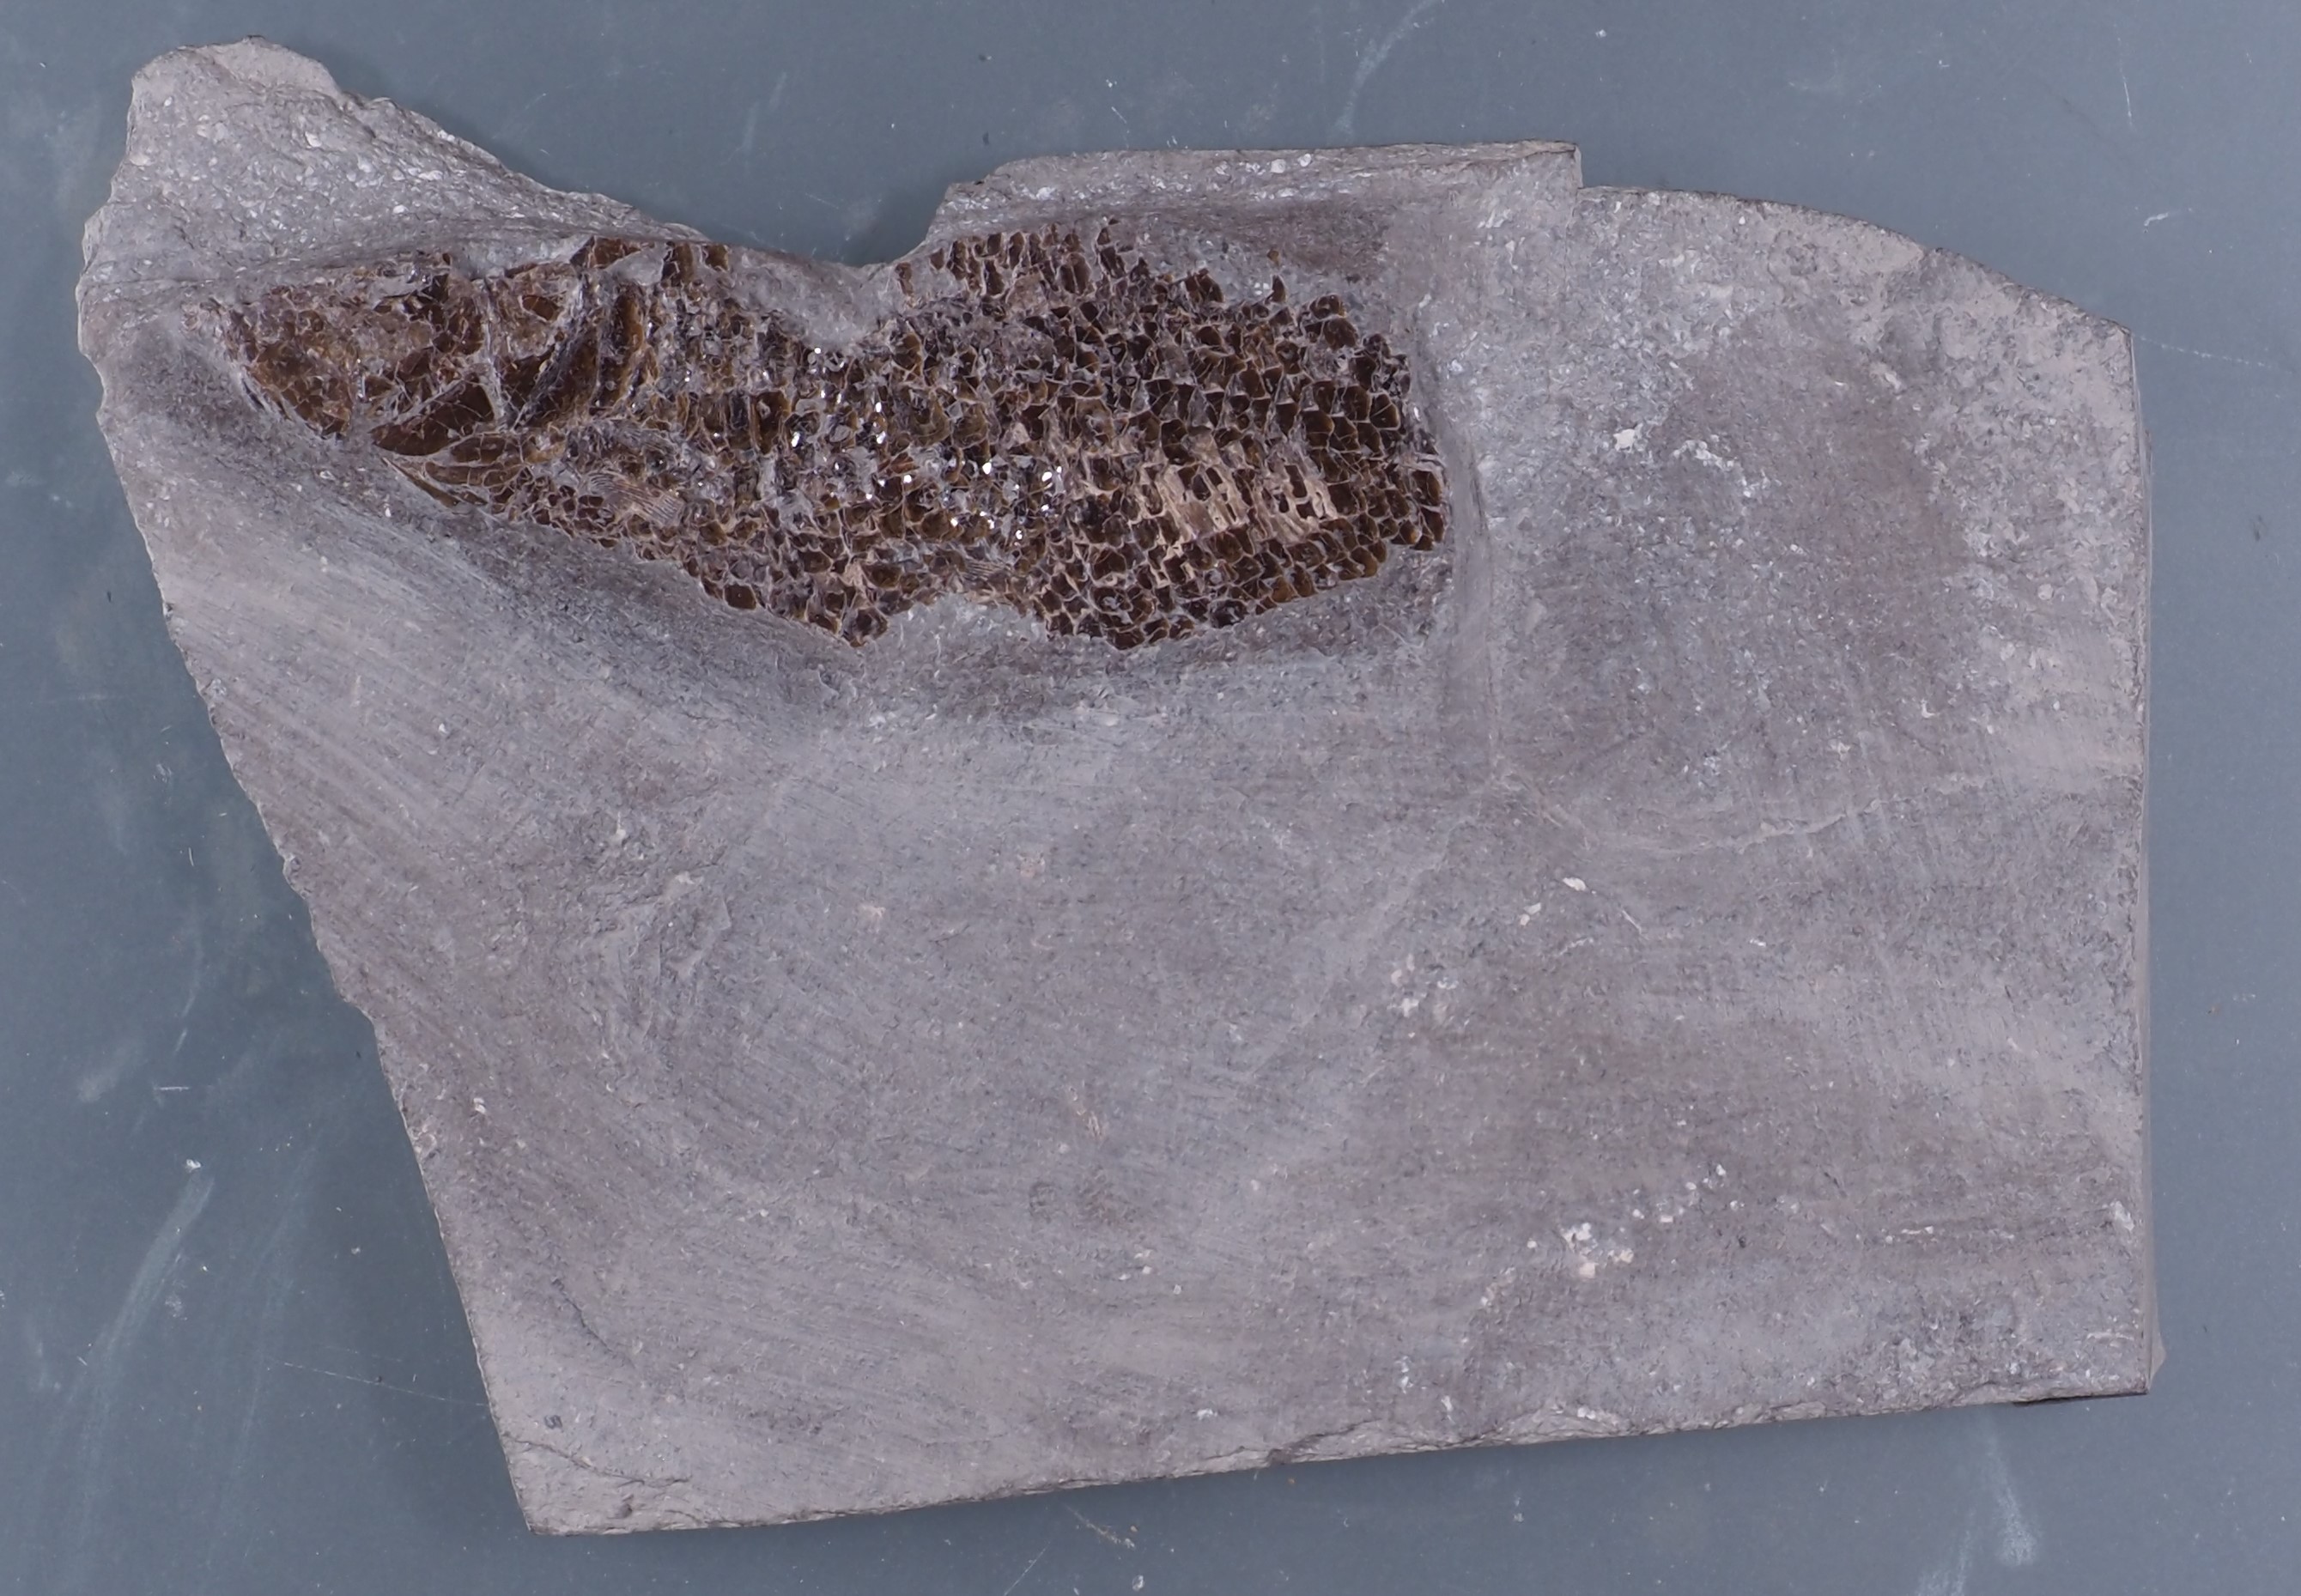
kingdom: Animalia
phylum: Chordata
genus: Luxembourgichthys
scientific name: Luxembourgichthys friedeni
